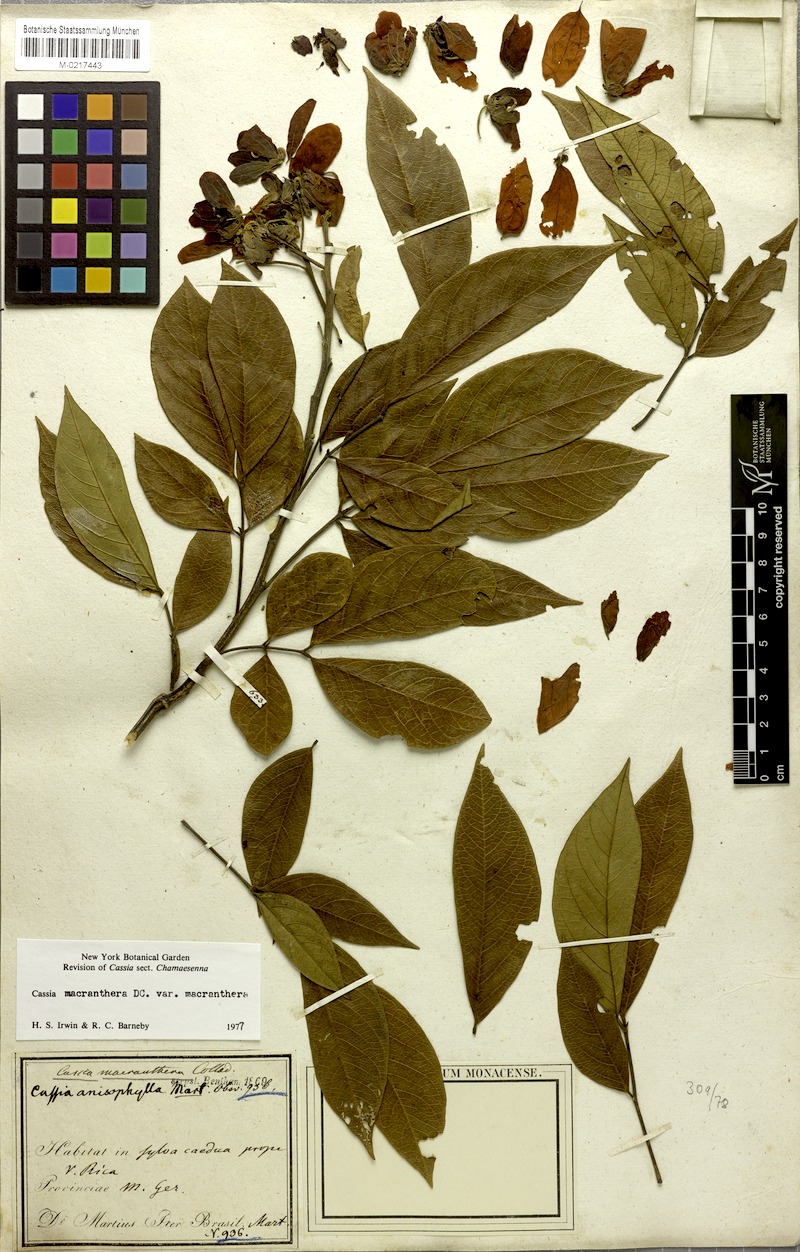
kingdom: Plantae
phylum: Tracheophyta
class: Magnoliopsida
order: Fabales
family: Fabaceae
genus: Cassia
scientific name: Cassia
